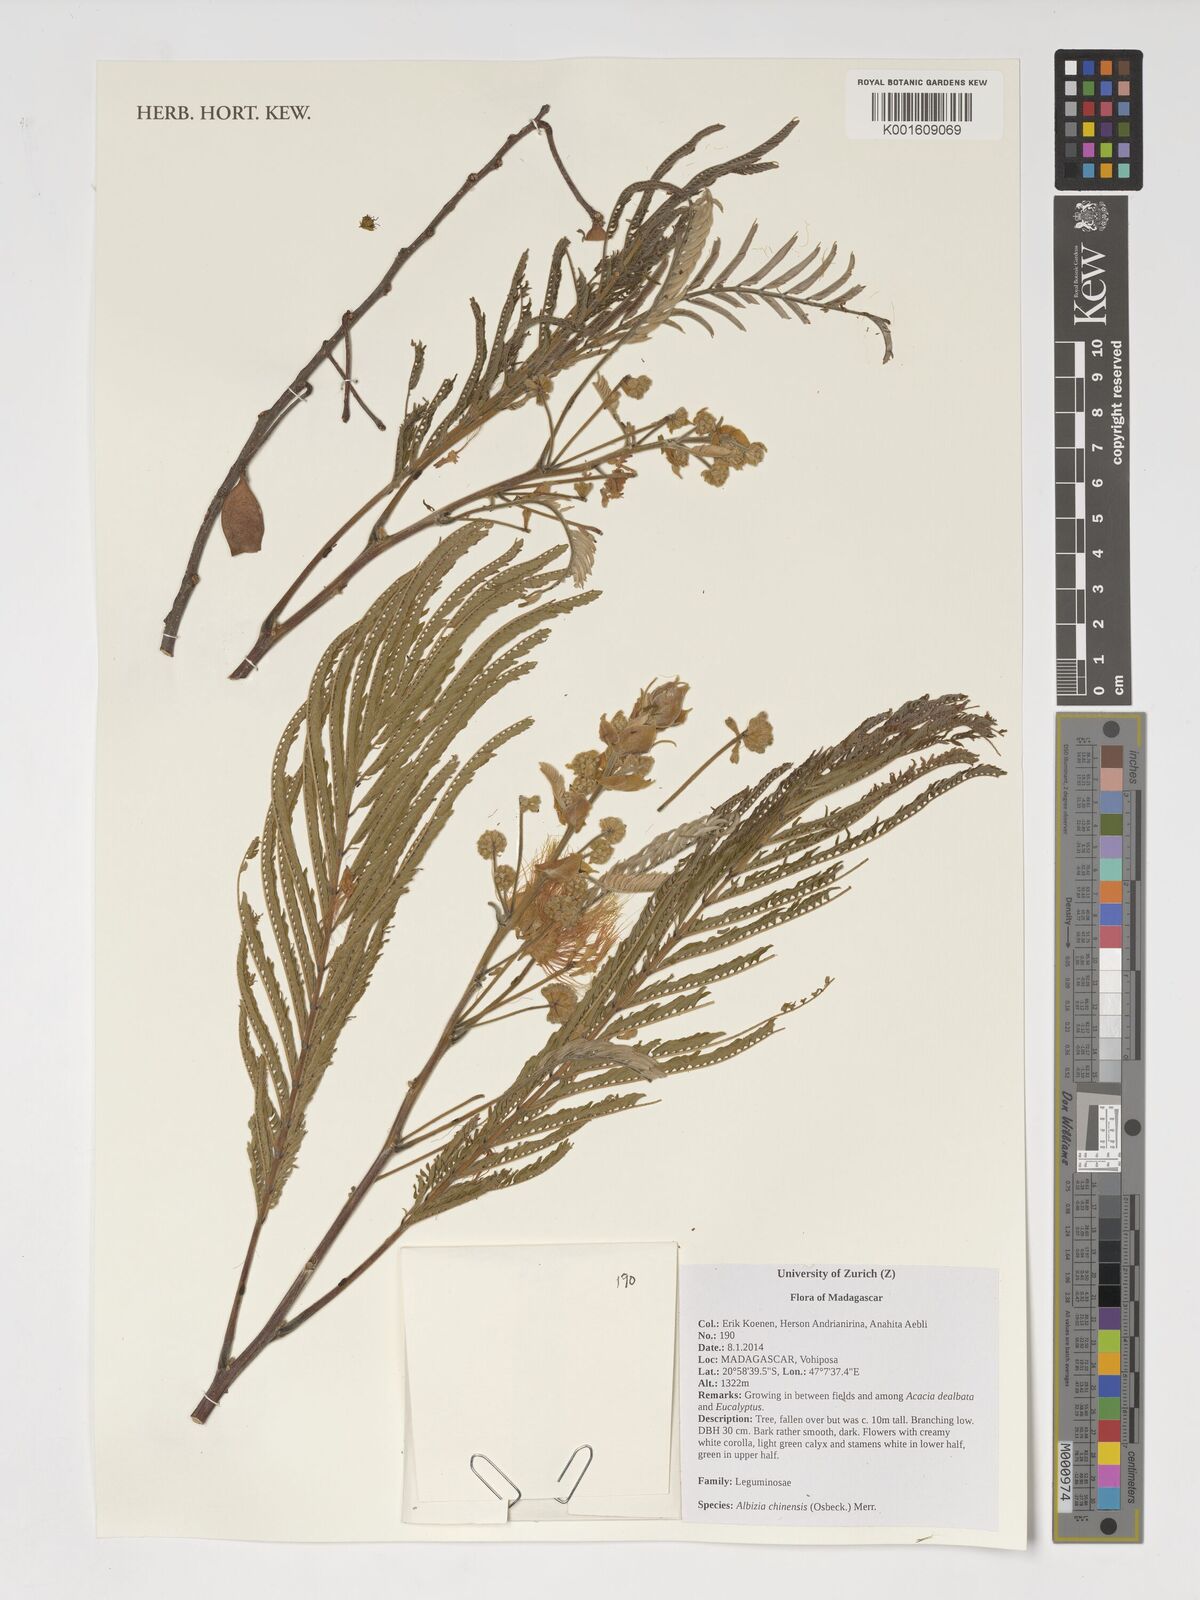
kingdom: Plantae
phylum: Tracheophyta
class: Magnoliopsida
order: Fabales
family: Fabaceae
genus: Albizia
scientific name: Albizia chinensis
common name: Chinese albizia
